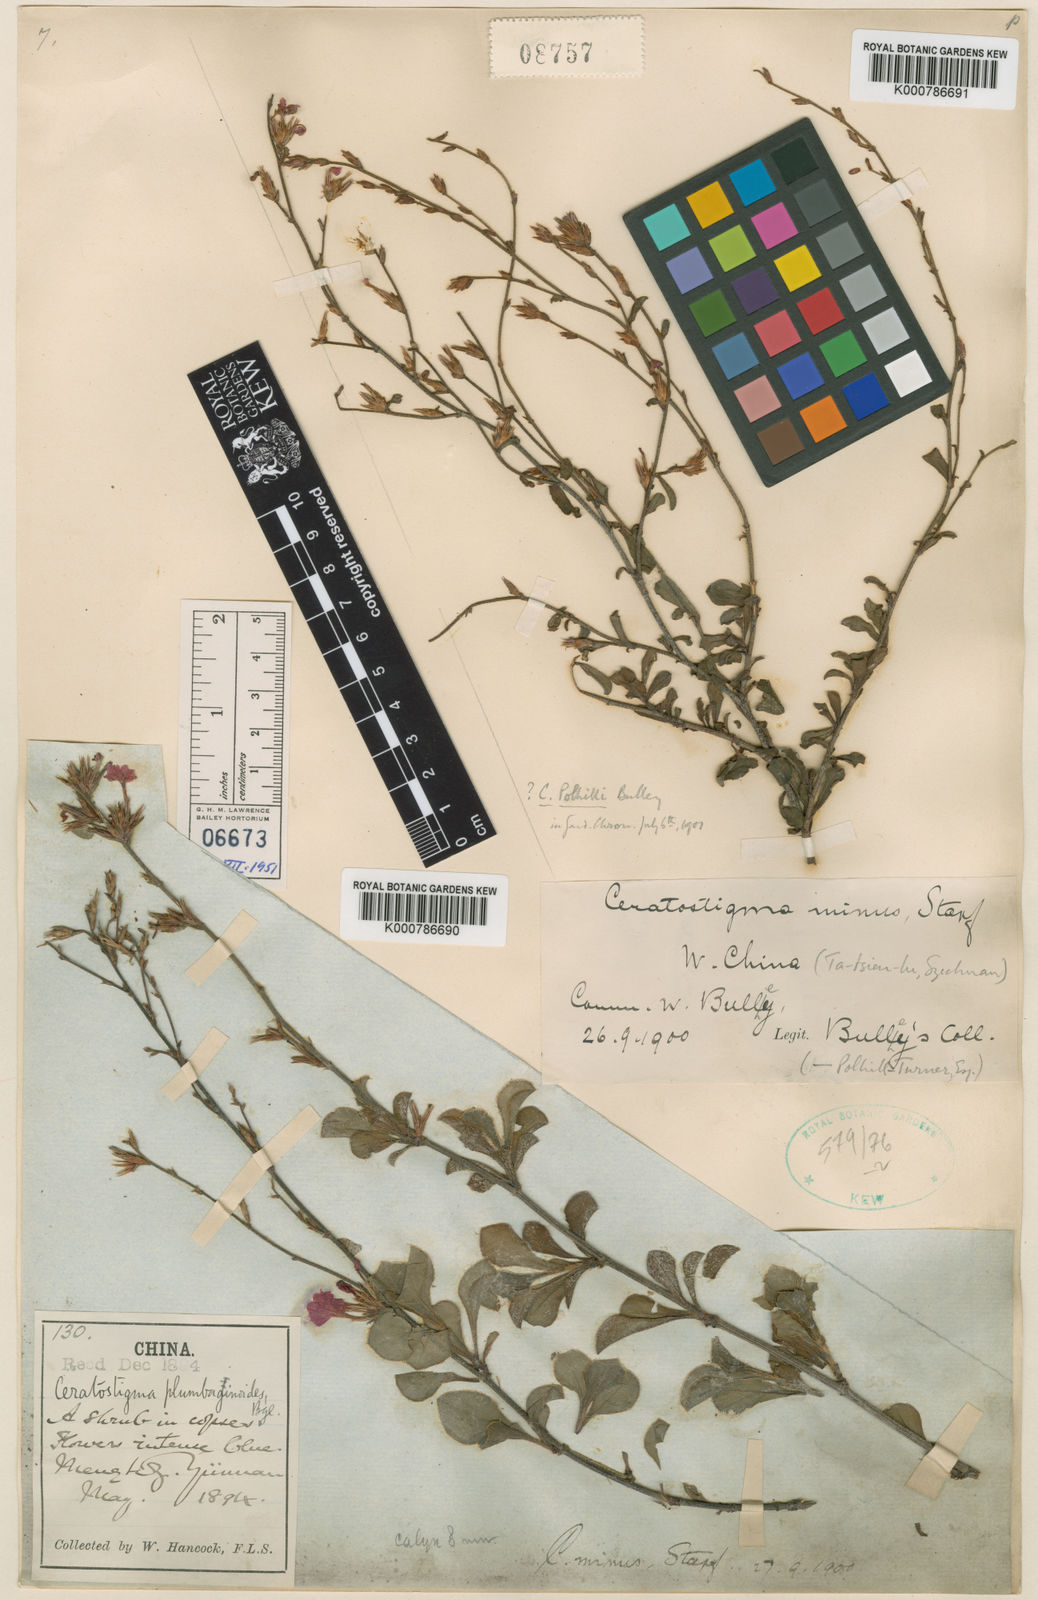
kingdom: Plantae
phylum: Tracheophyta
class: Magnoliopsida
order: Caryophyllales
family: Plumbaginaceae
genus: Ceratostigma
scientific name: Ceratostigma minus
